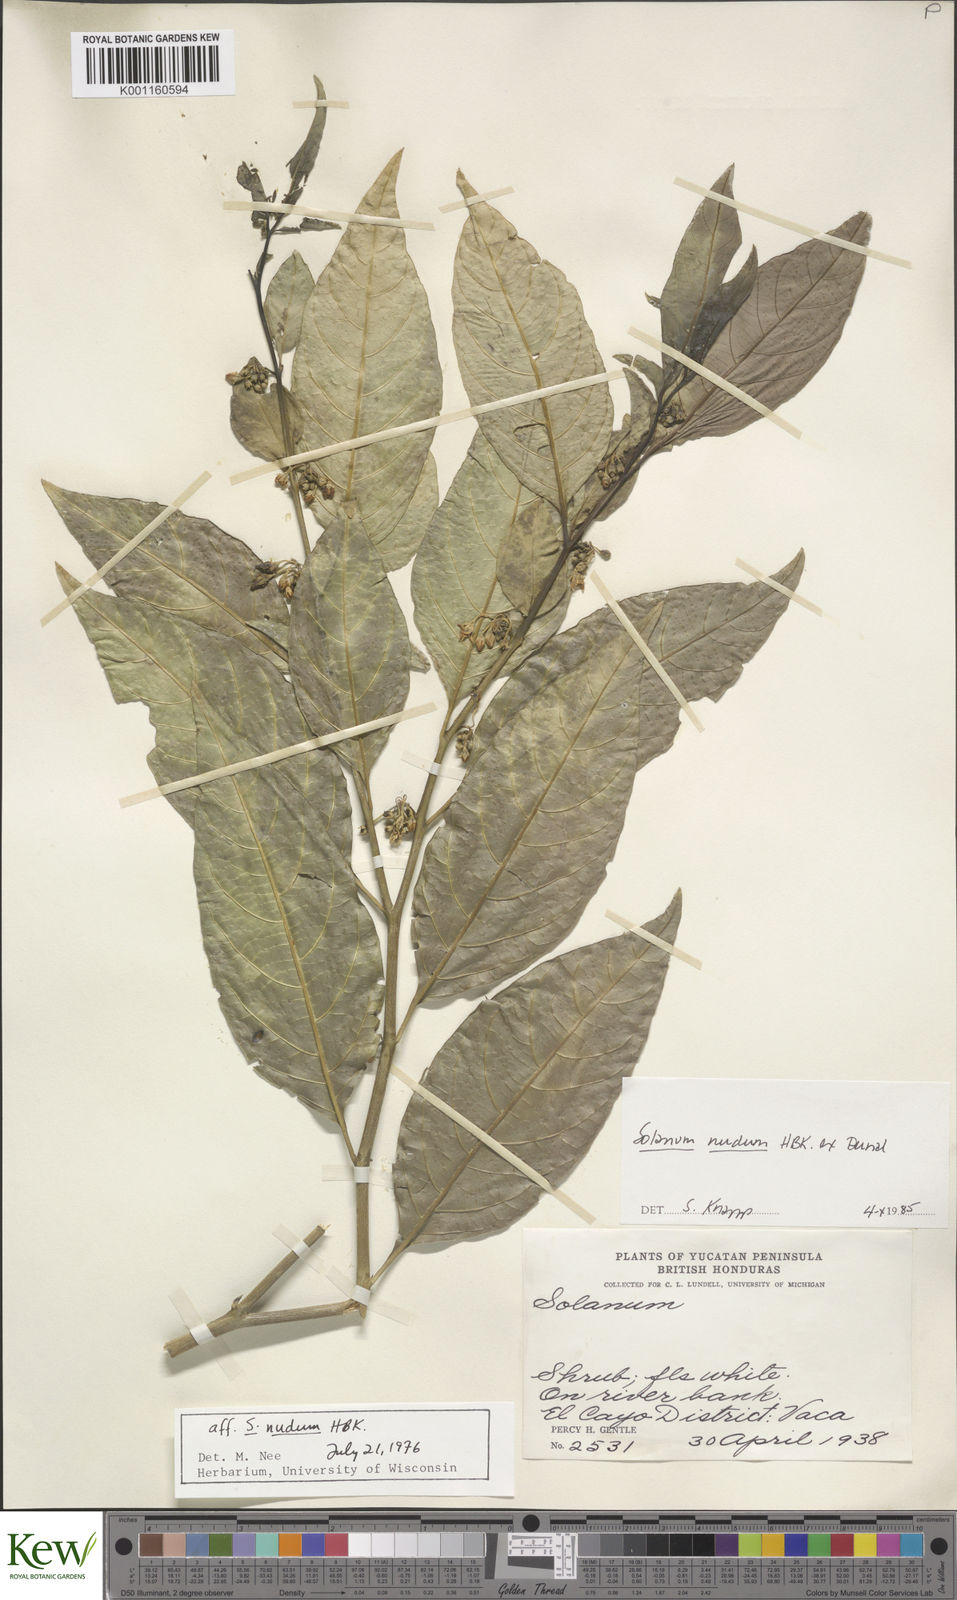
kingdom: Plantae
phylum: Tracheophyta
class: Magnoliopsida
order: Solanales
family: Solanaceae
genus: Solanum
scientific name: Solanum nudum
